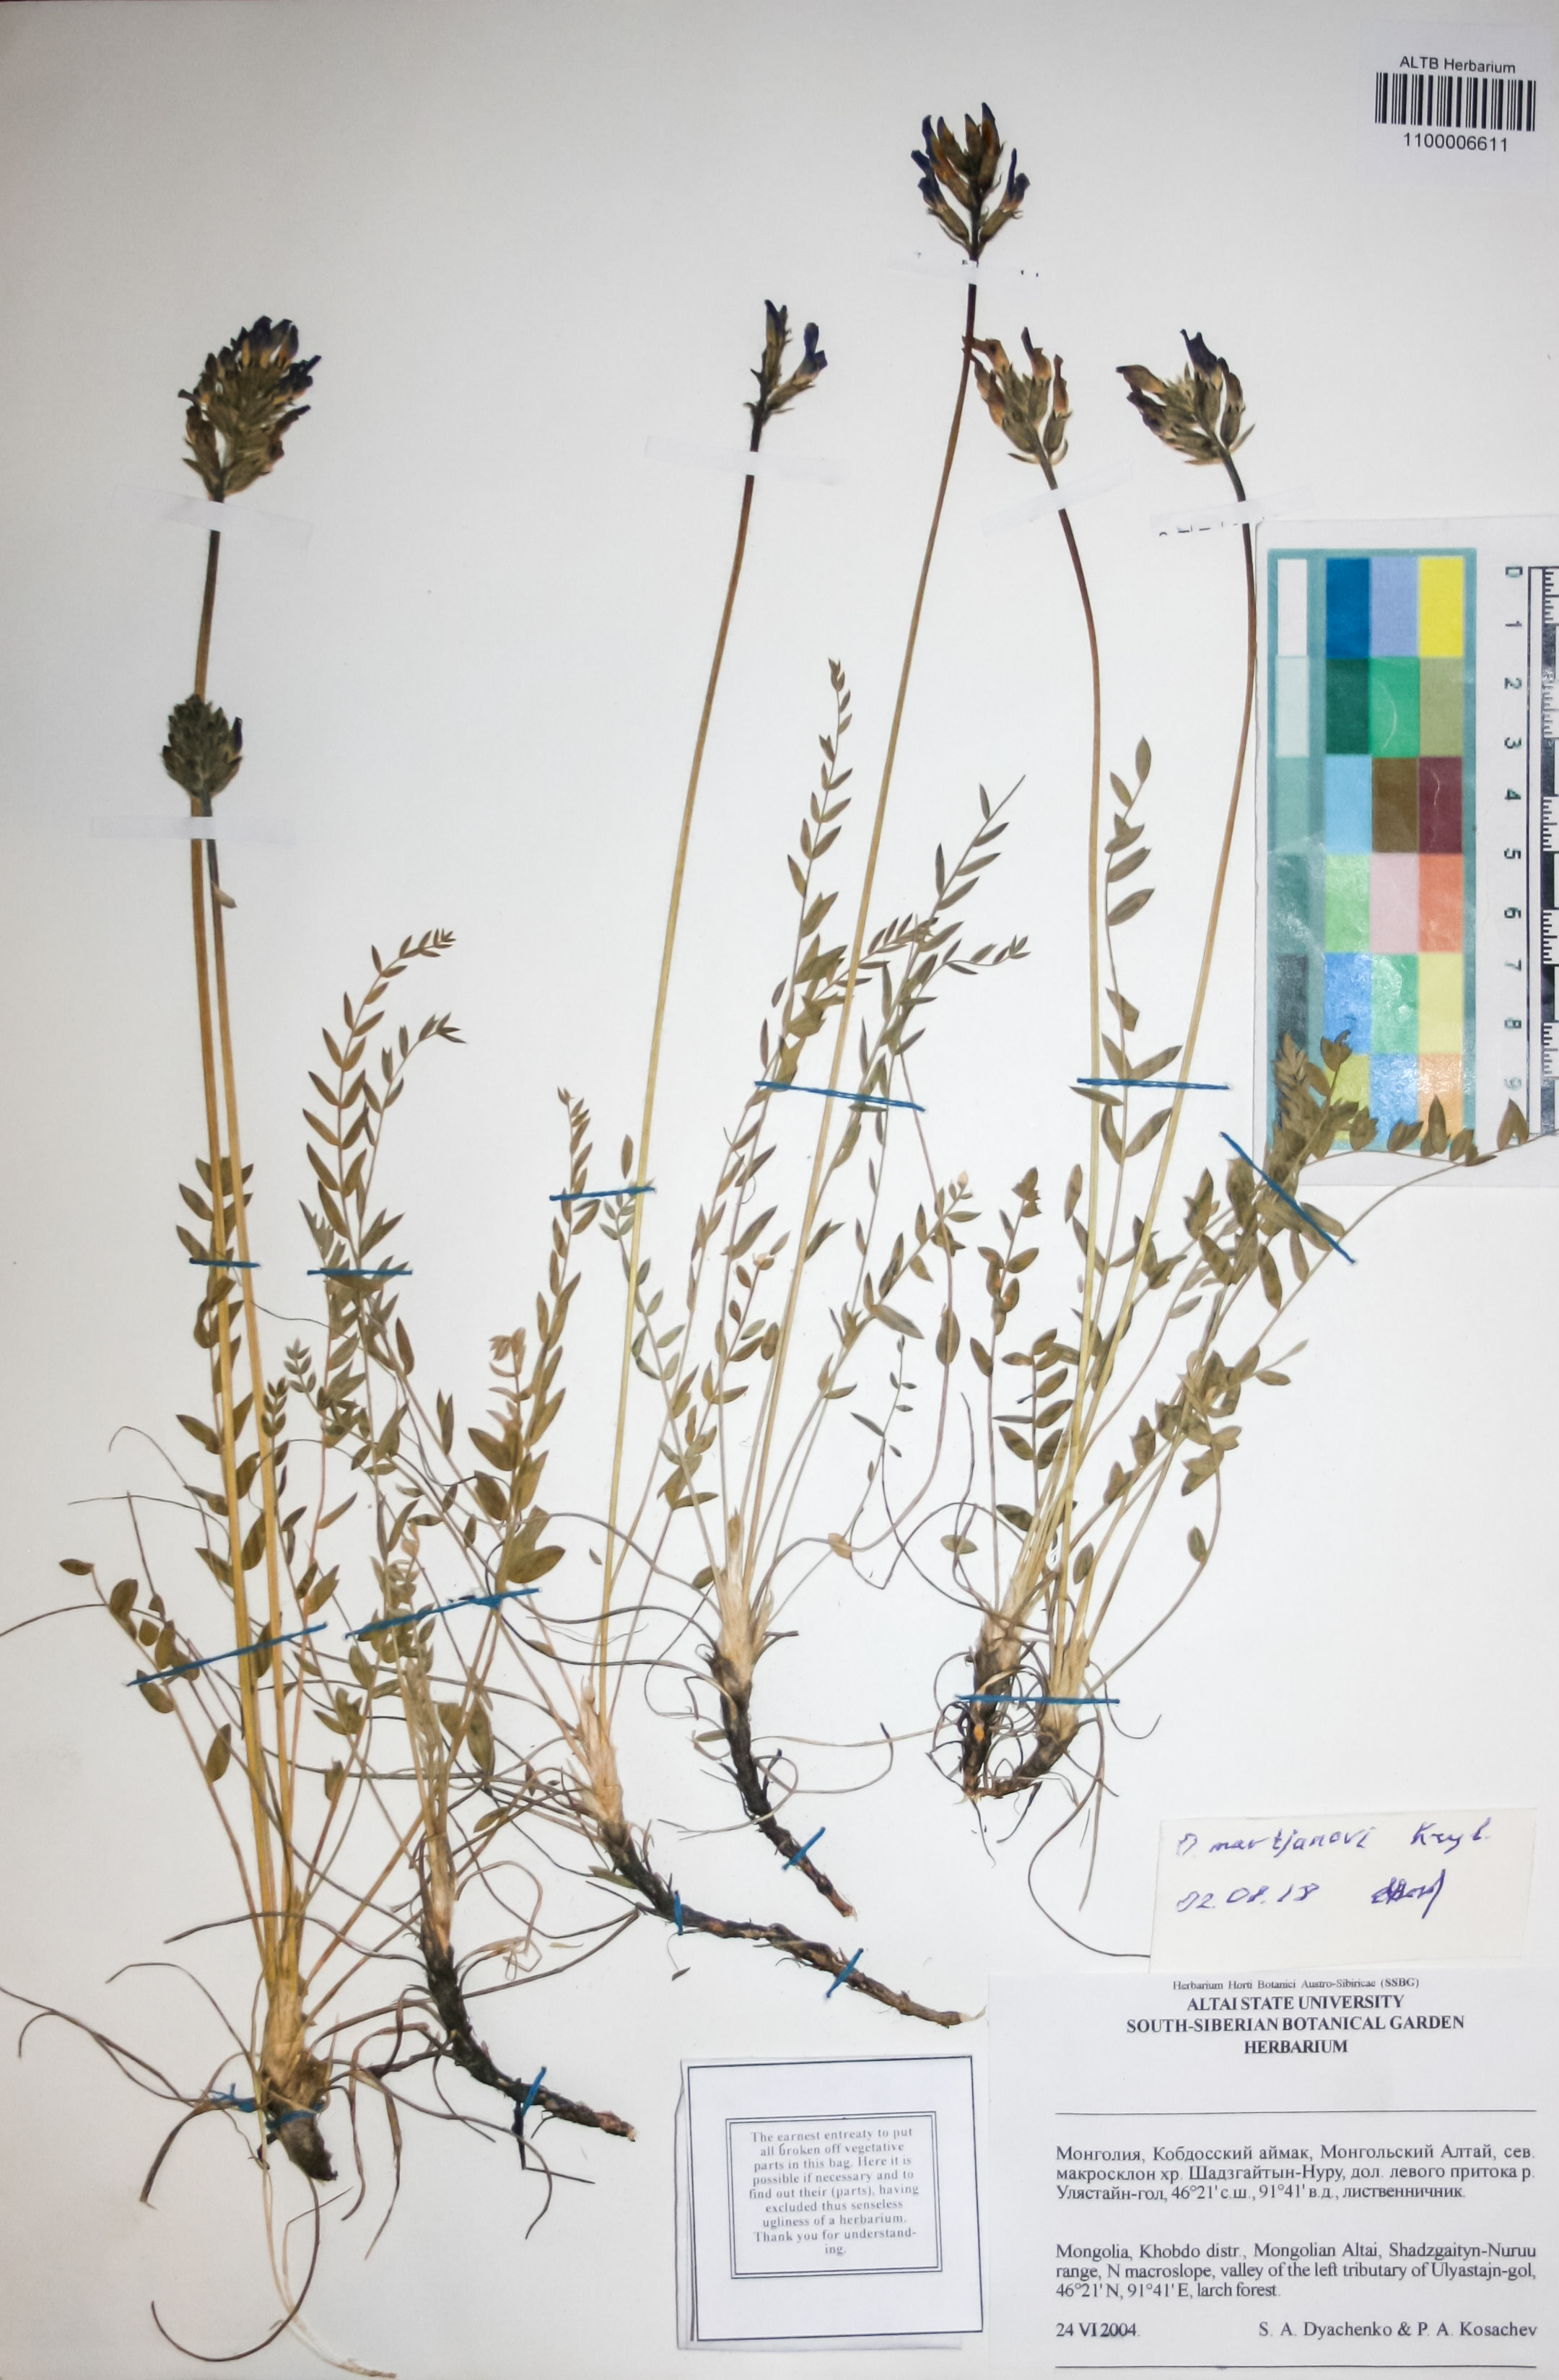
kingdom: Plantae
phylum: Tracheophyta
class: Magnoliopsida
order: Fabales
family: Fabaceae
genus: Oxytropis
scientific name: Oxytropis martjanovii
